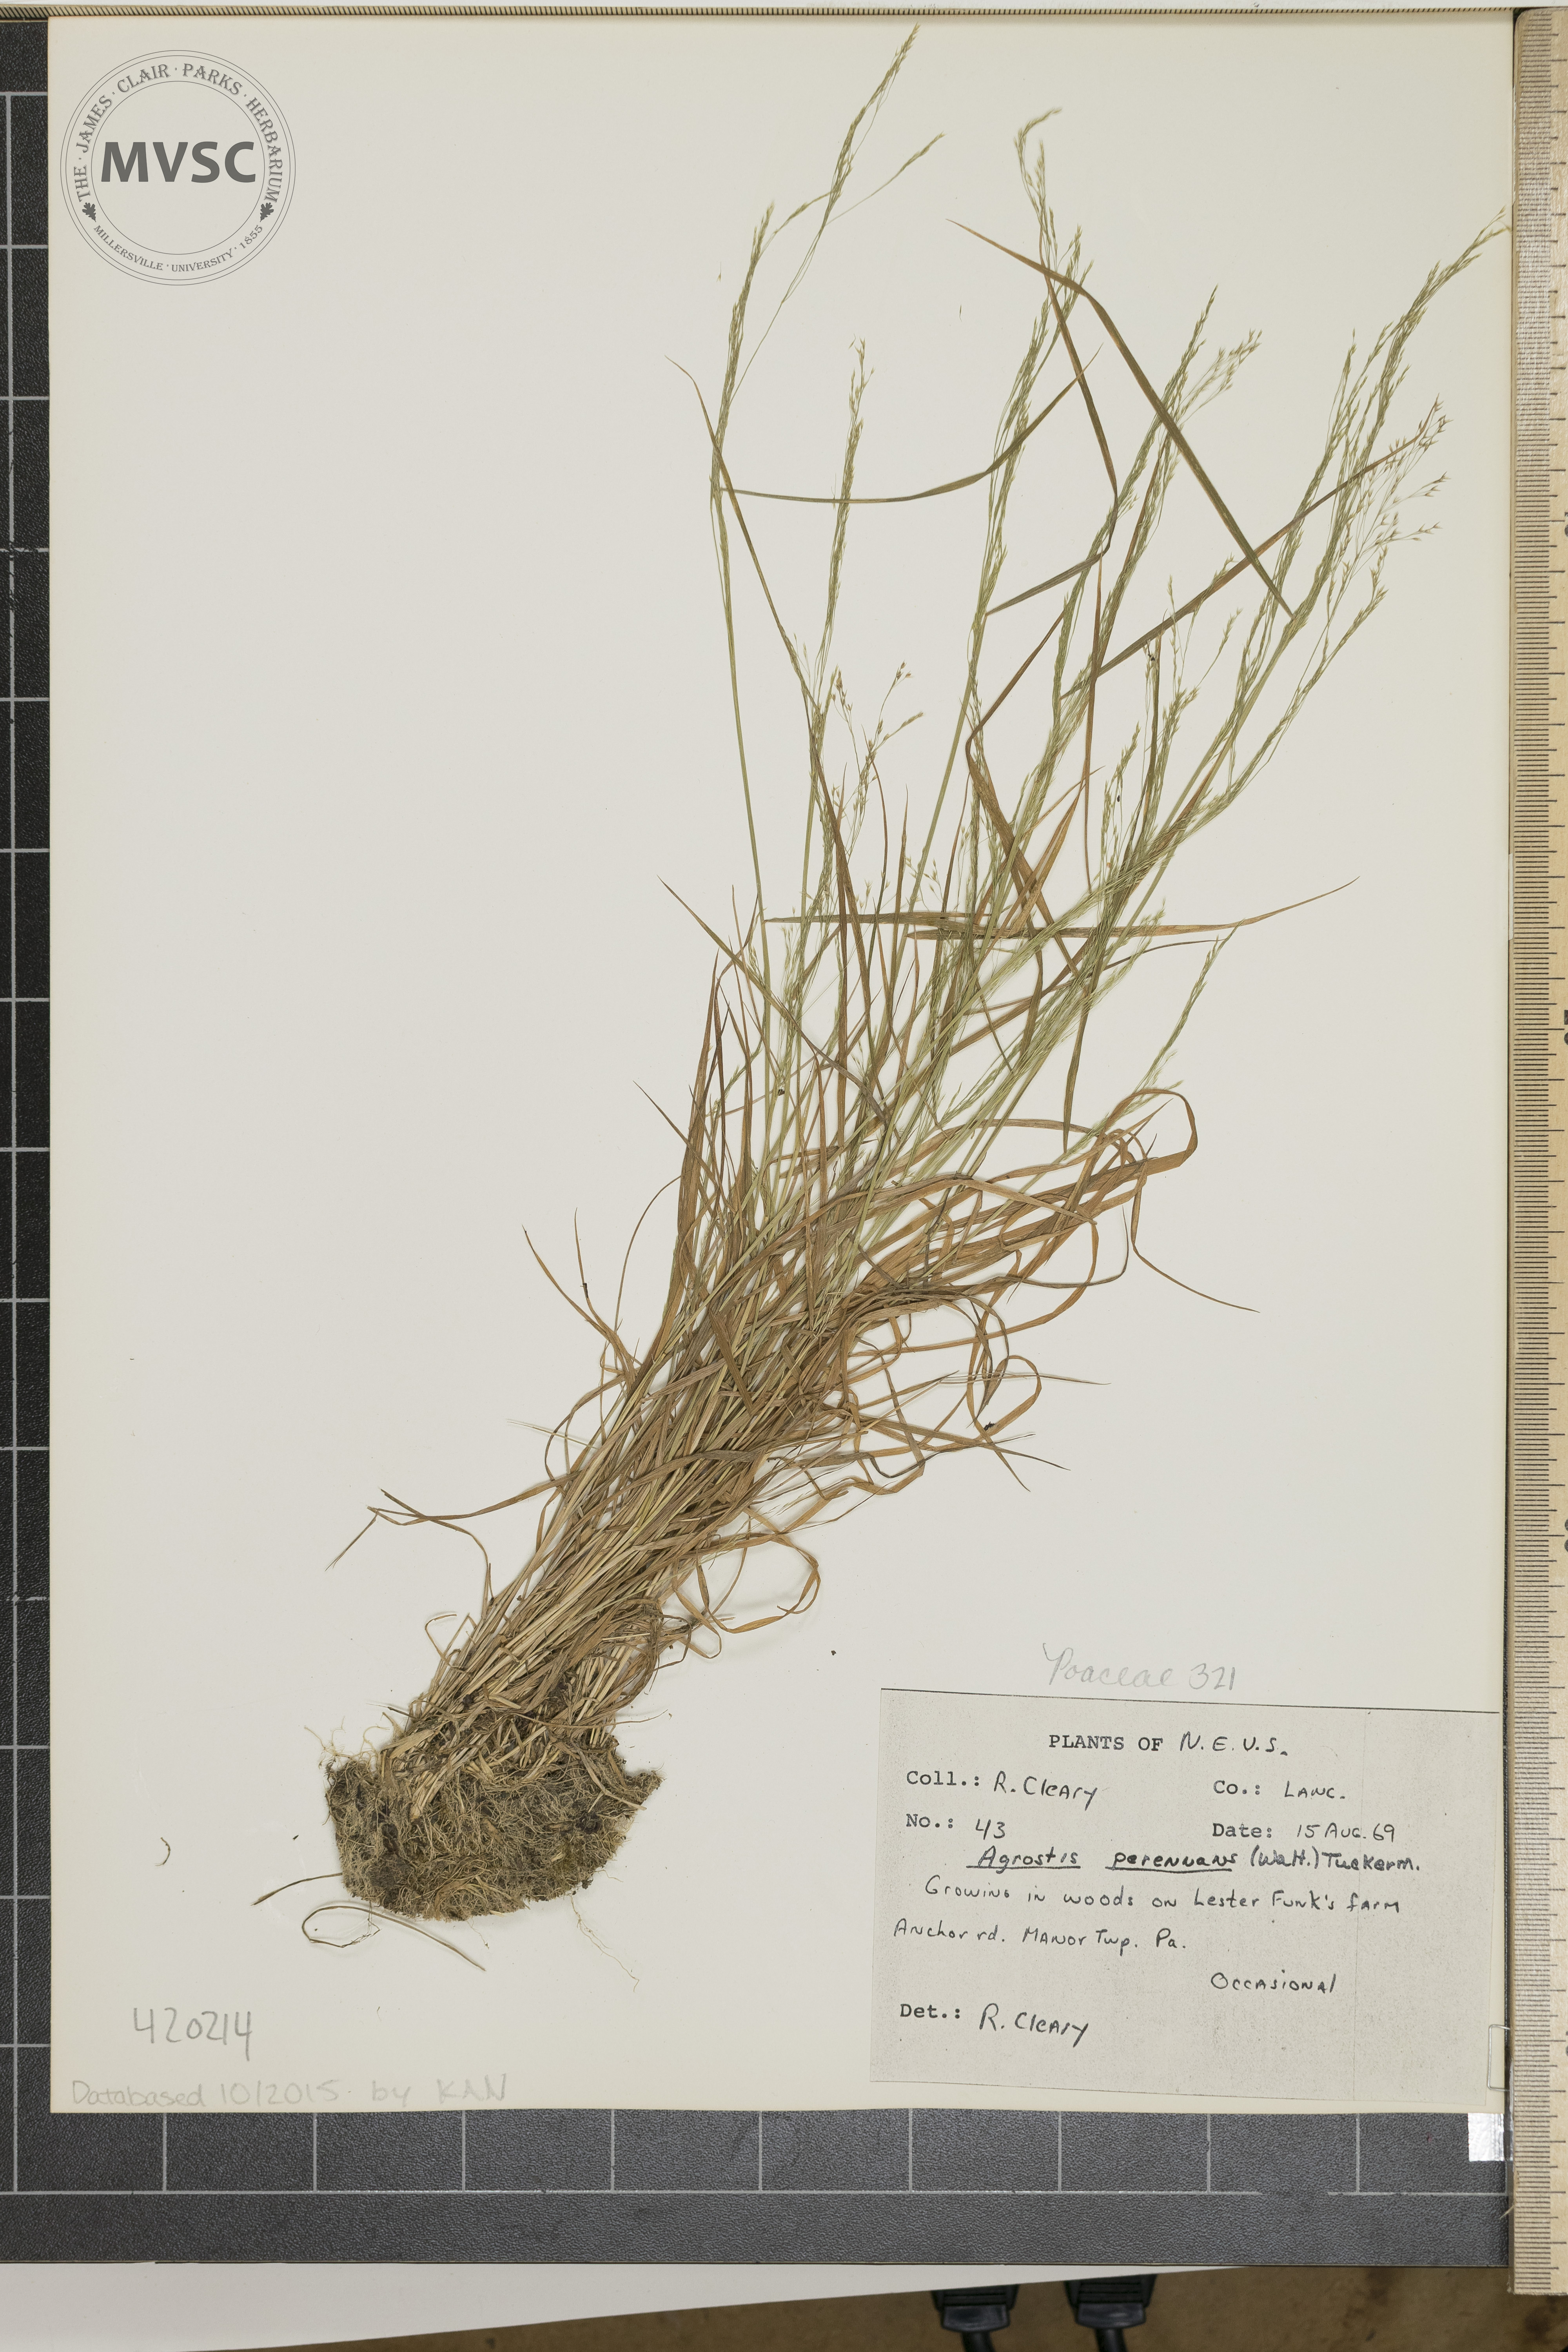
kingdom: Plantae
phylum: Tracheophyta
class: Liliopsida
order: Poales
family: Poaceae
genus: Agrostis
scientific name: Agrostis perennans
